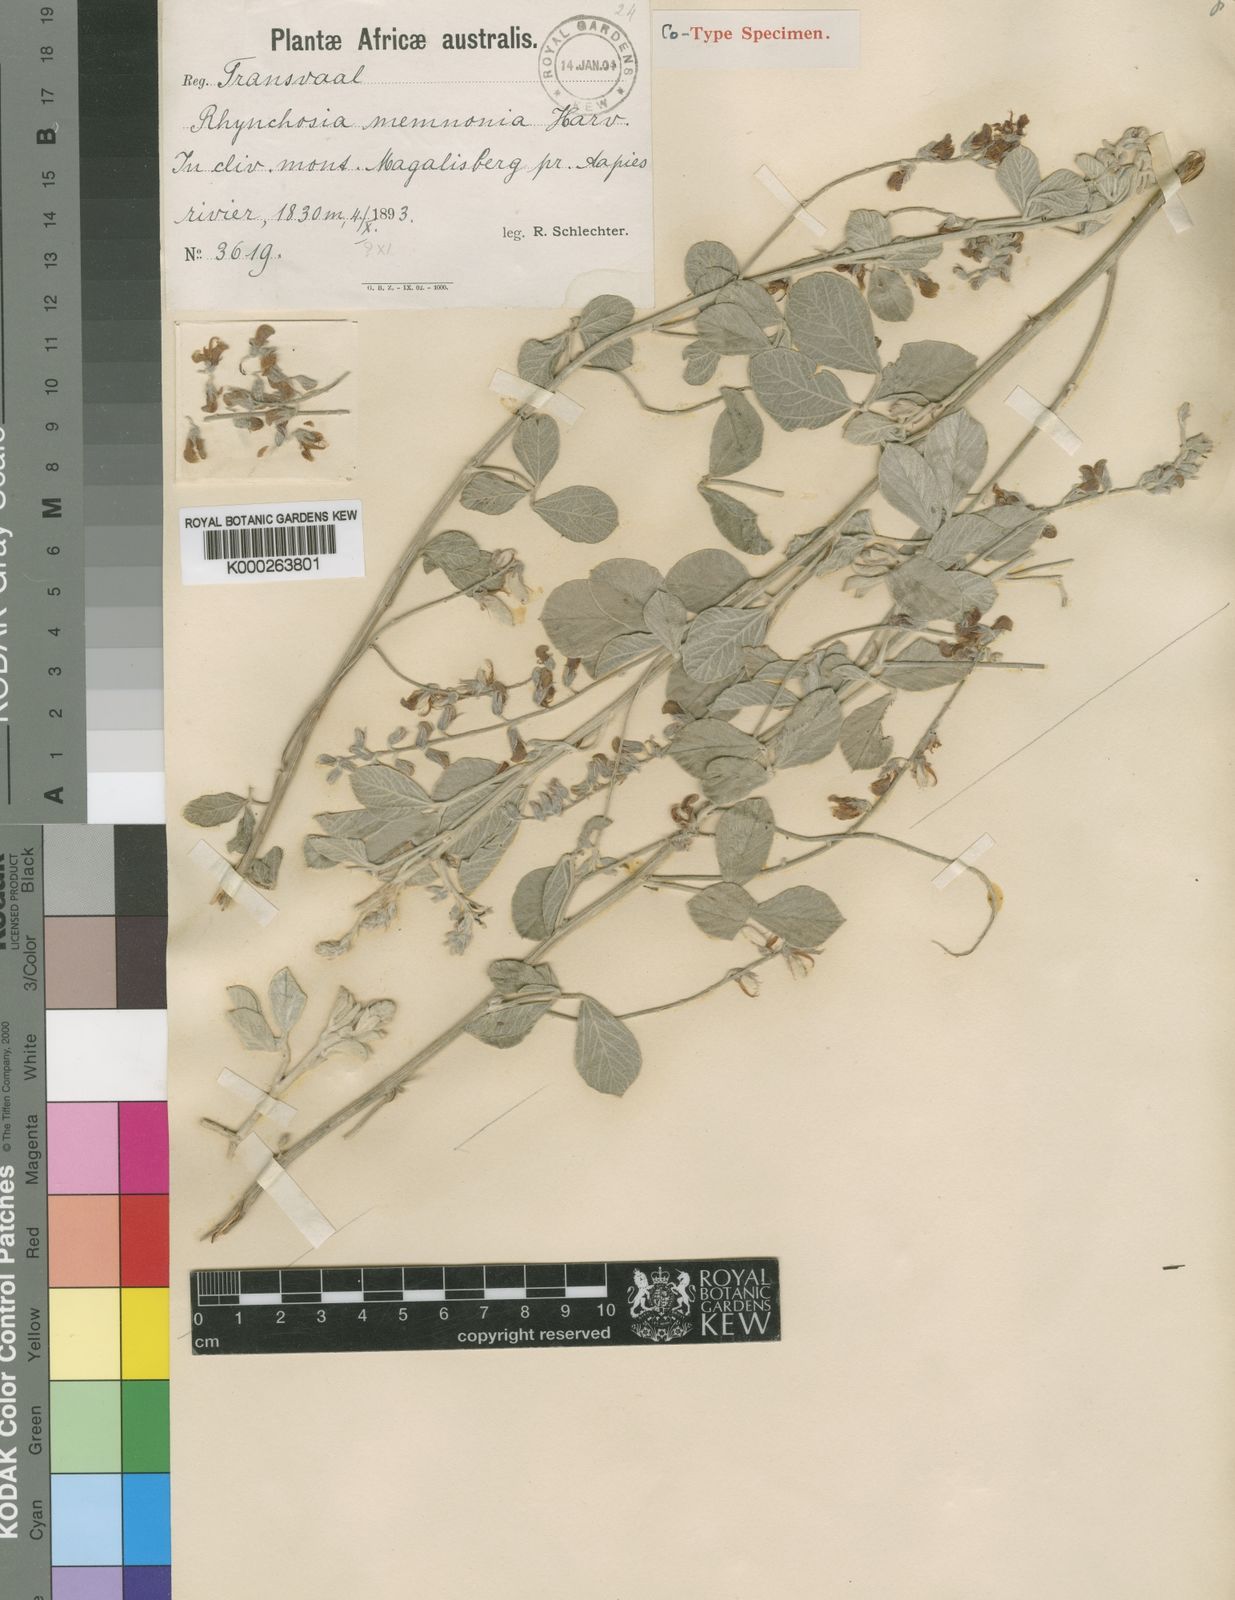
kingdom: Plantae
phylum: Tracheophyta
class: Magnoliopsida
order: Fabales
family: Fabaceae
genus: Rhynchosia
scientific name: Rhynchosia albissima
